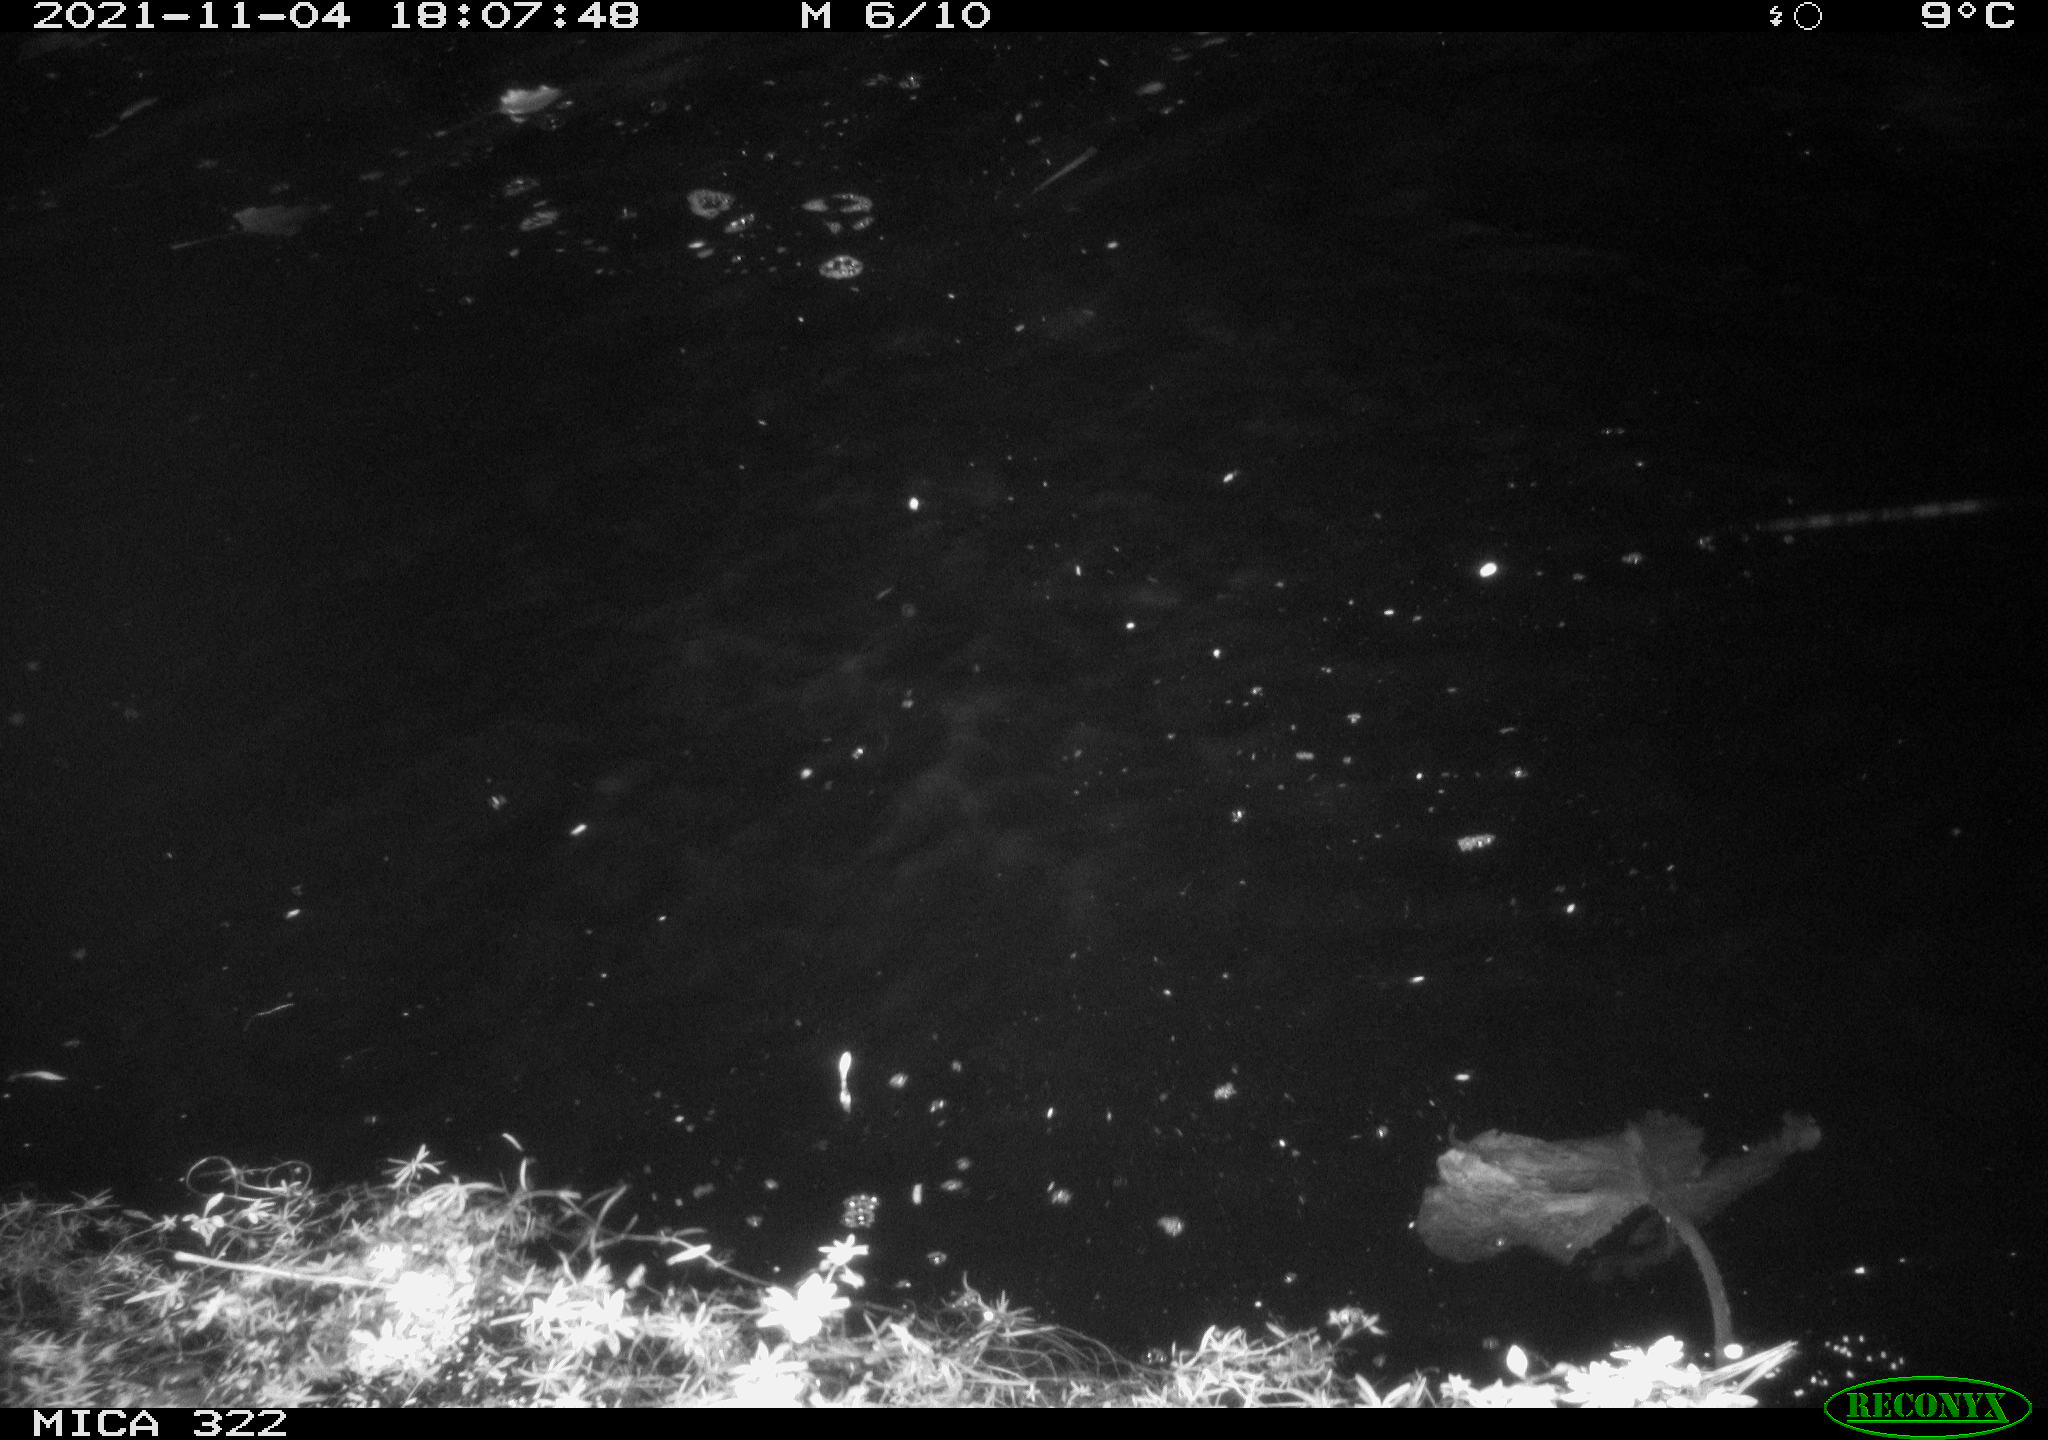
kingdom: Animalia
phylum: Chordata
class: Aves
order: Anseriformes
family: Anatidae
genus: Anas
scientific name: Anas platyrhynchos
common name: Mallard
